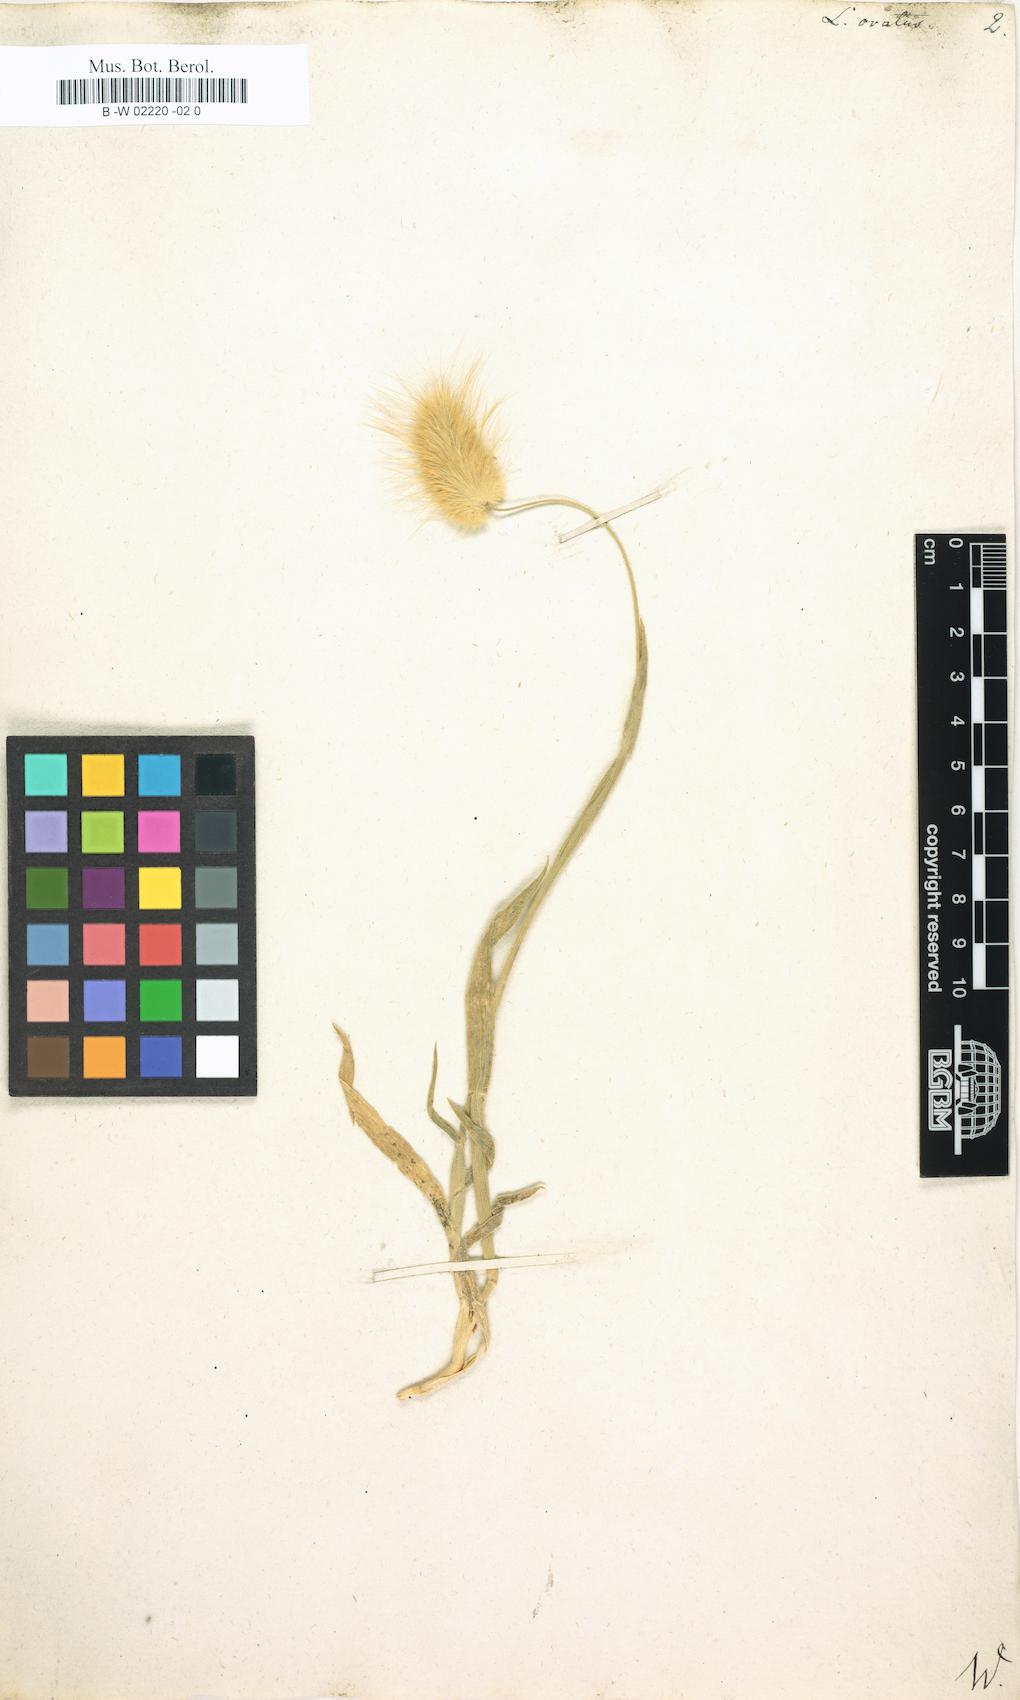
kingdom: Plantae
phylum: Tracheophyta
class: Liliopsida
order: Poales
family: Poaceae
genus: Lagurus
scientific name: Lagurus ovatus
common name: Hare's-tail
